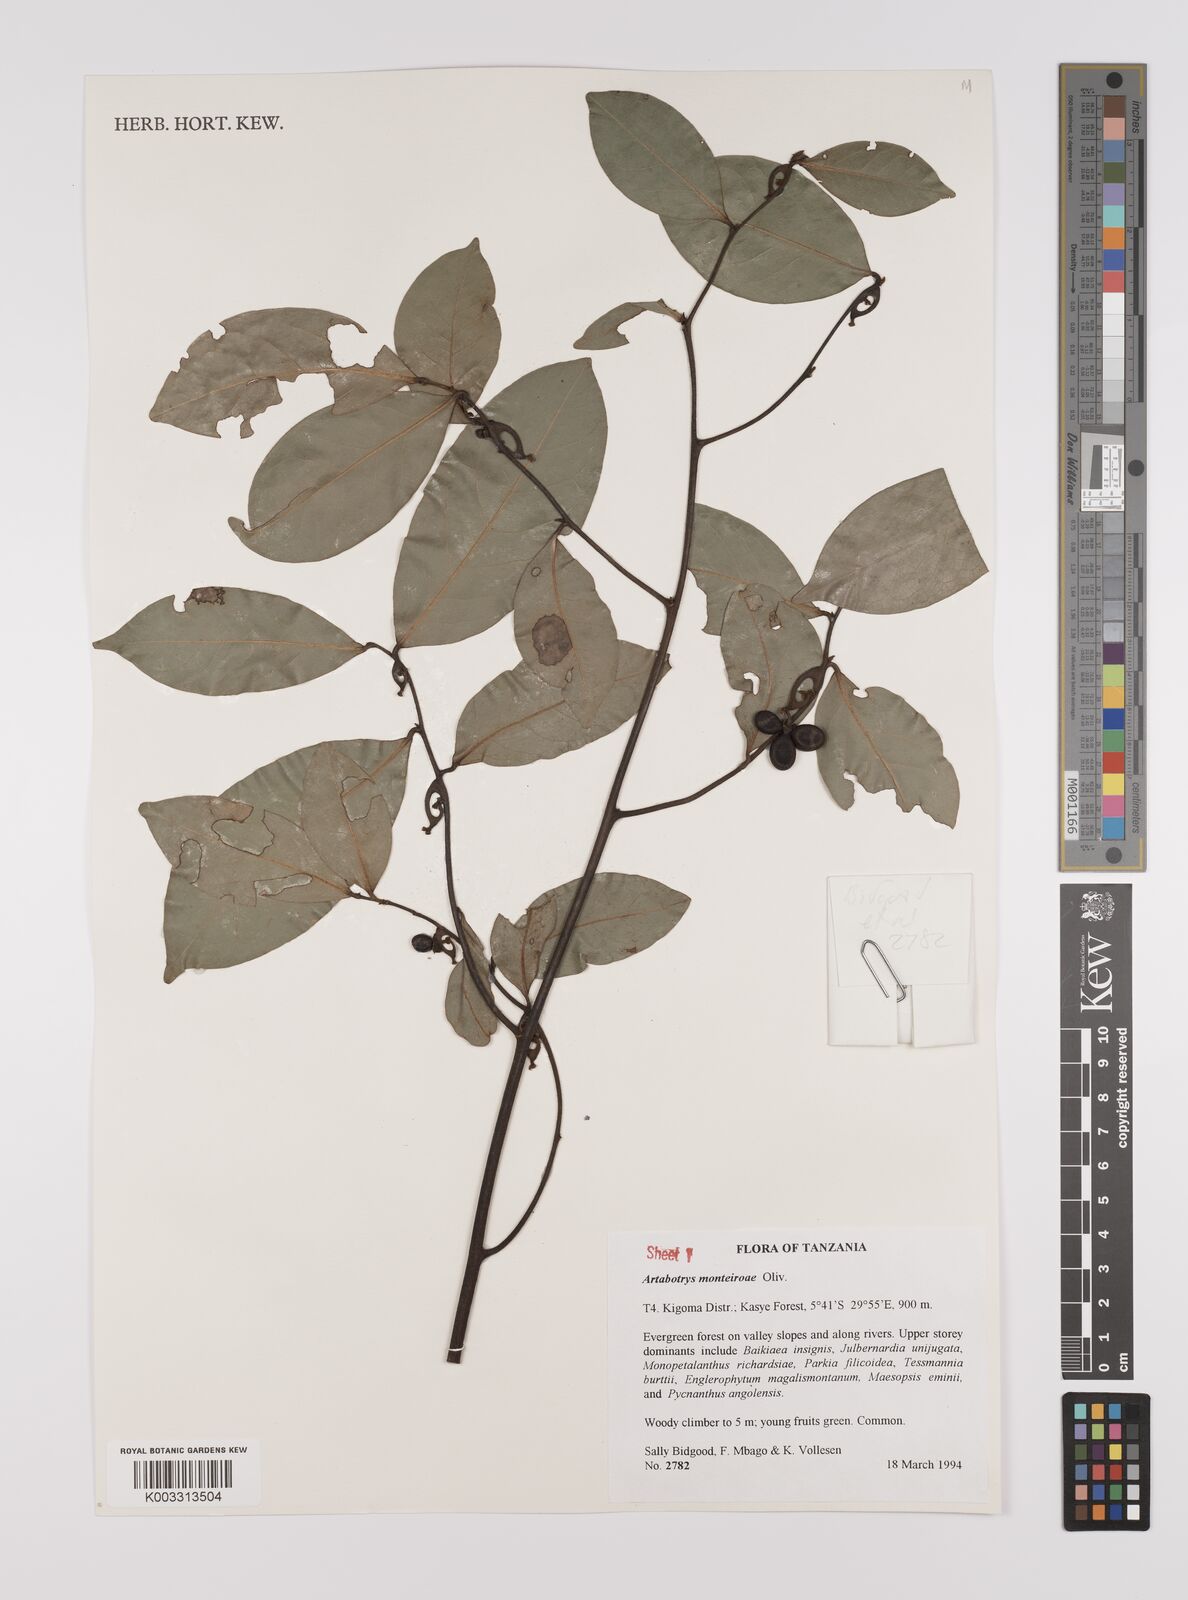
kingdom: Plantae
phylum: Tracheophyta
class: Magnoliopsida
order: Magnoliales
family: Annonaceae
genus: Artabotrys
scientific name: Artabotrys monteiroae
